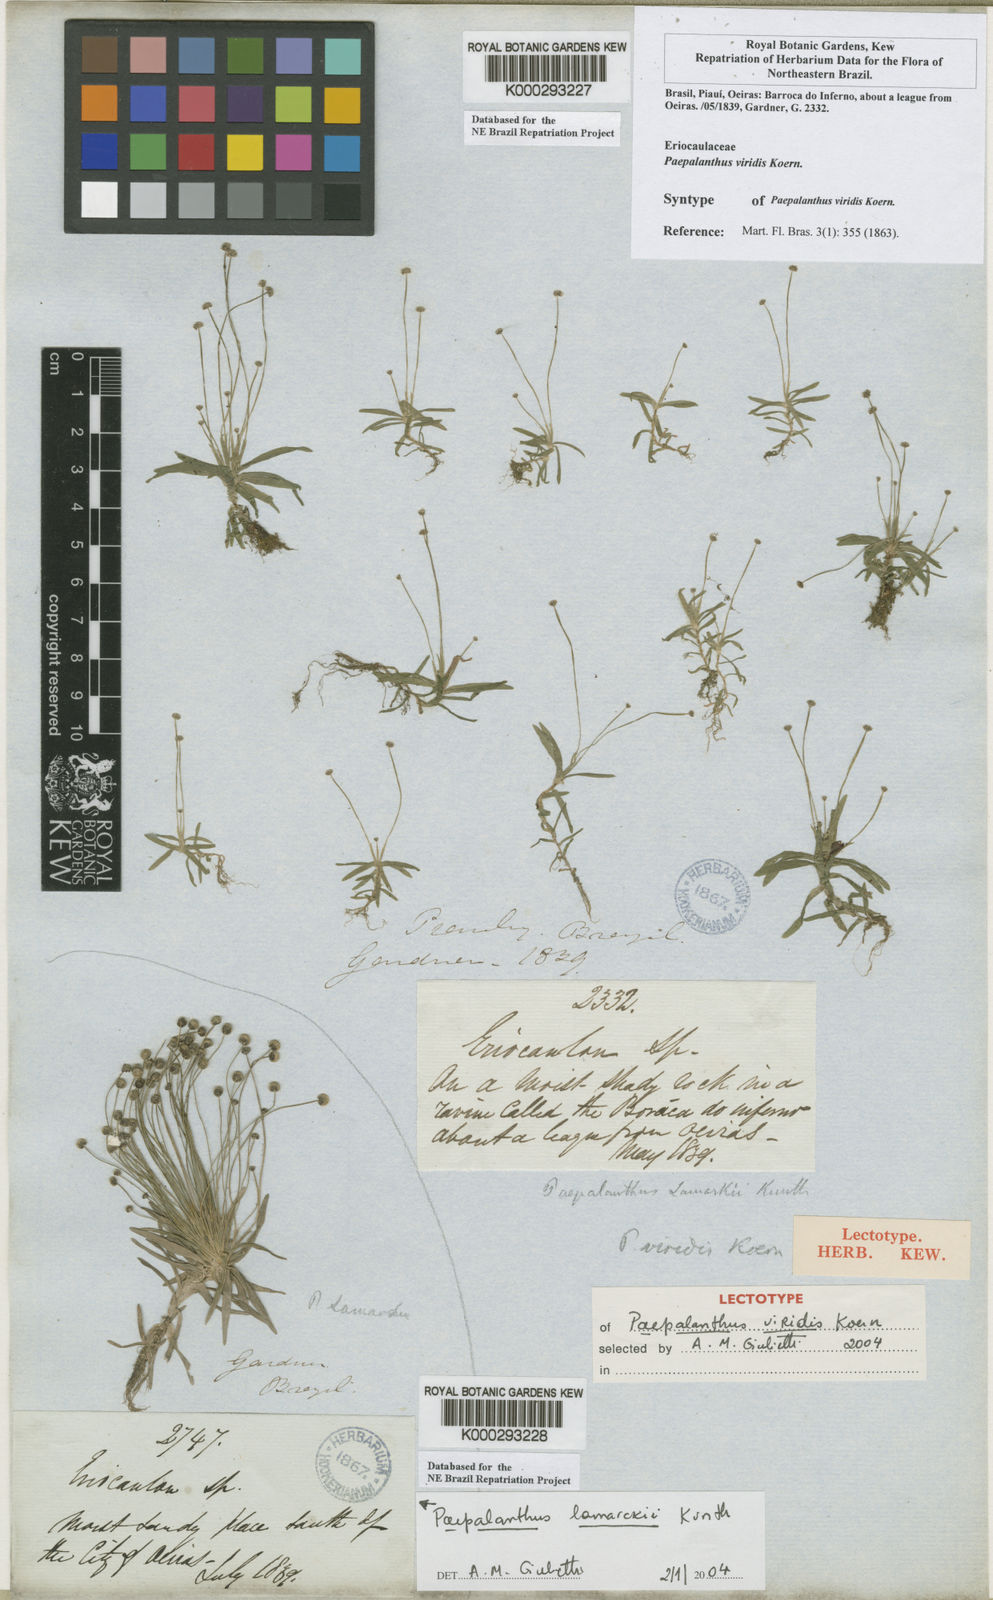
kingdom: Plantae
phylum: Tracheophyta
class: Liliopsida
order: Poales
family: Eriocaulaceae
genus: Paepalanthus
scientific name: Paepalanthus
